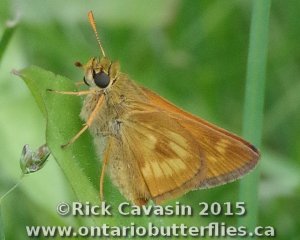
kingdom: Animalia
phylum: Arthropoda
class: Insecta
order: Lepidoptera
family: Hesperiidae
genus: Polites
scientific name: Polites
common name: Long Dash Skipper
